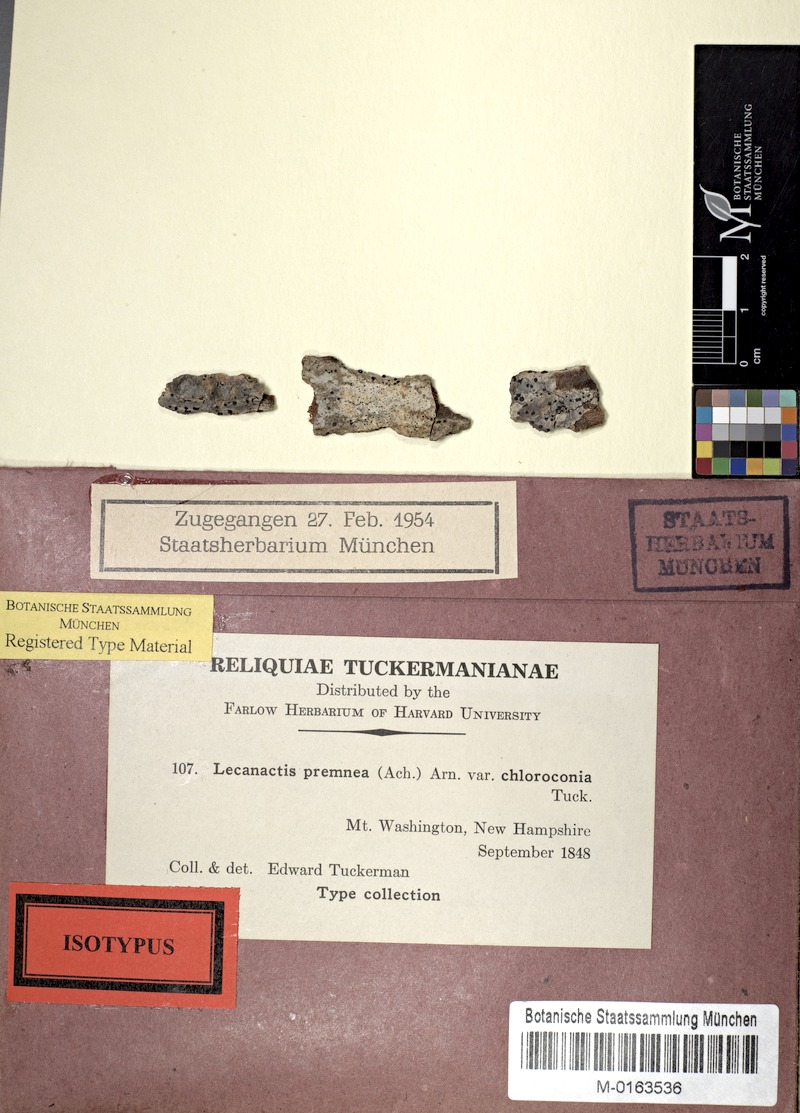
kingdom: Fungi
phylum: Ascomycota
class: Arthoniomycetes
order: Arthoniales
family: Opegraphaceae
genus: Cresponea
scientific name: Cresponea chloroconia
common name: Greenish old-wood lichen
